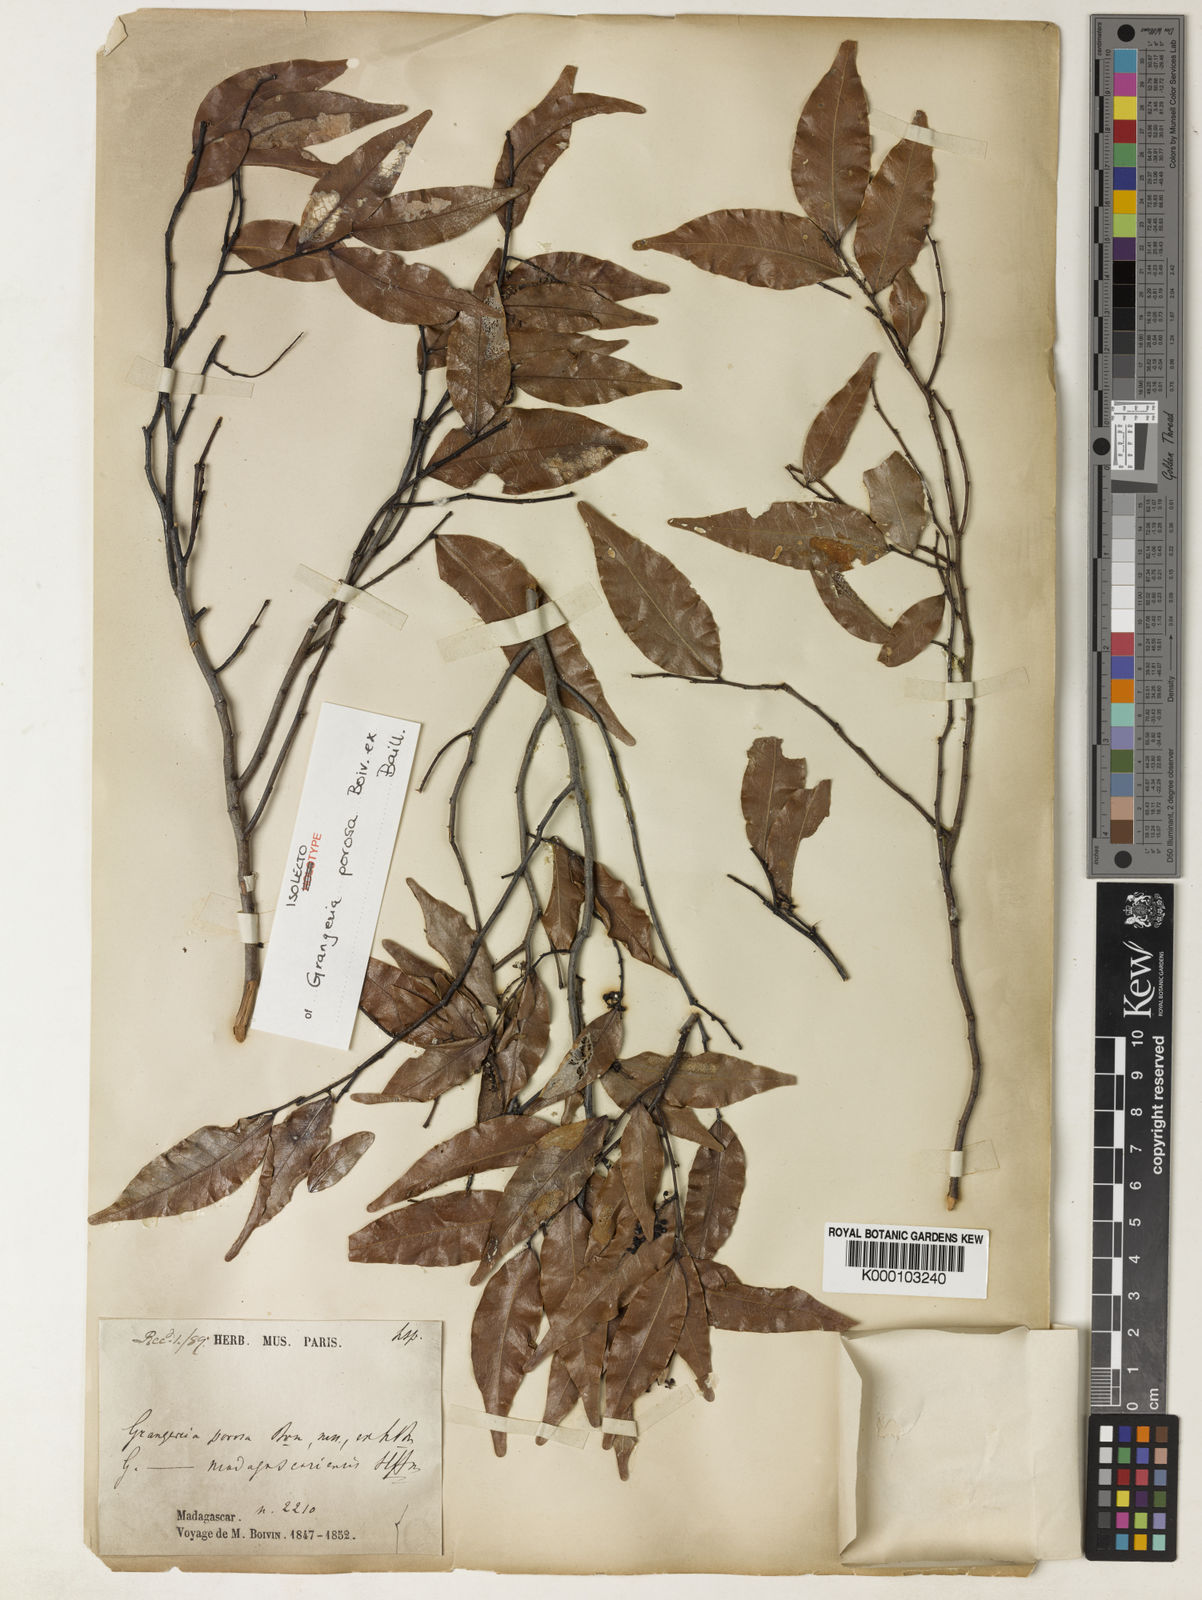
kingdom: Plantae
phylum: Tracheophyta
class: Magnoliopsida
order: Malpighiales
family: Chrysobalanaceae
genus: Grangeria
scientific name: Grangeria porosa
